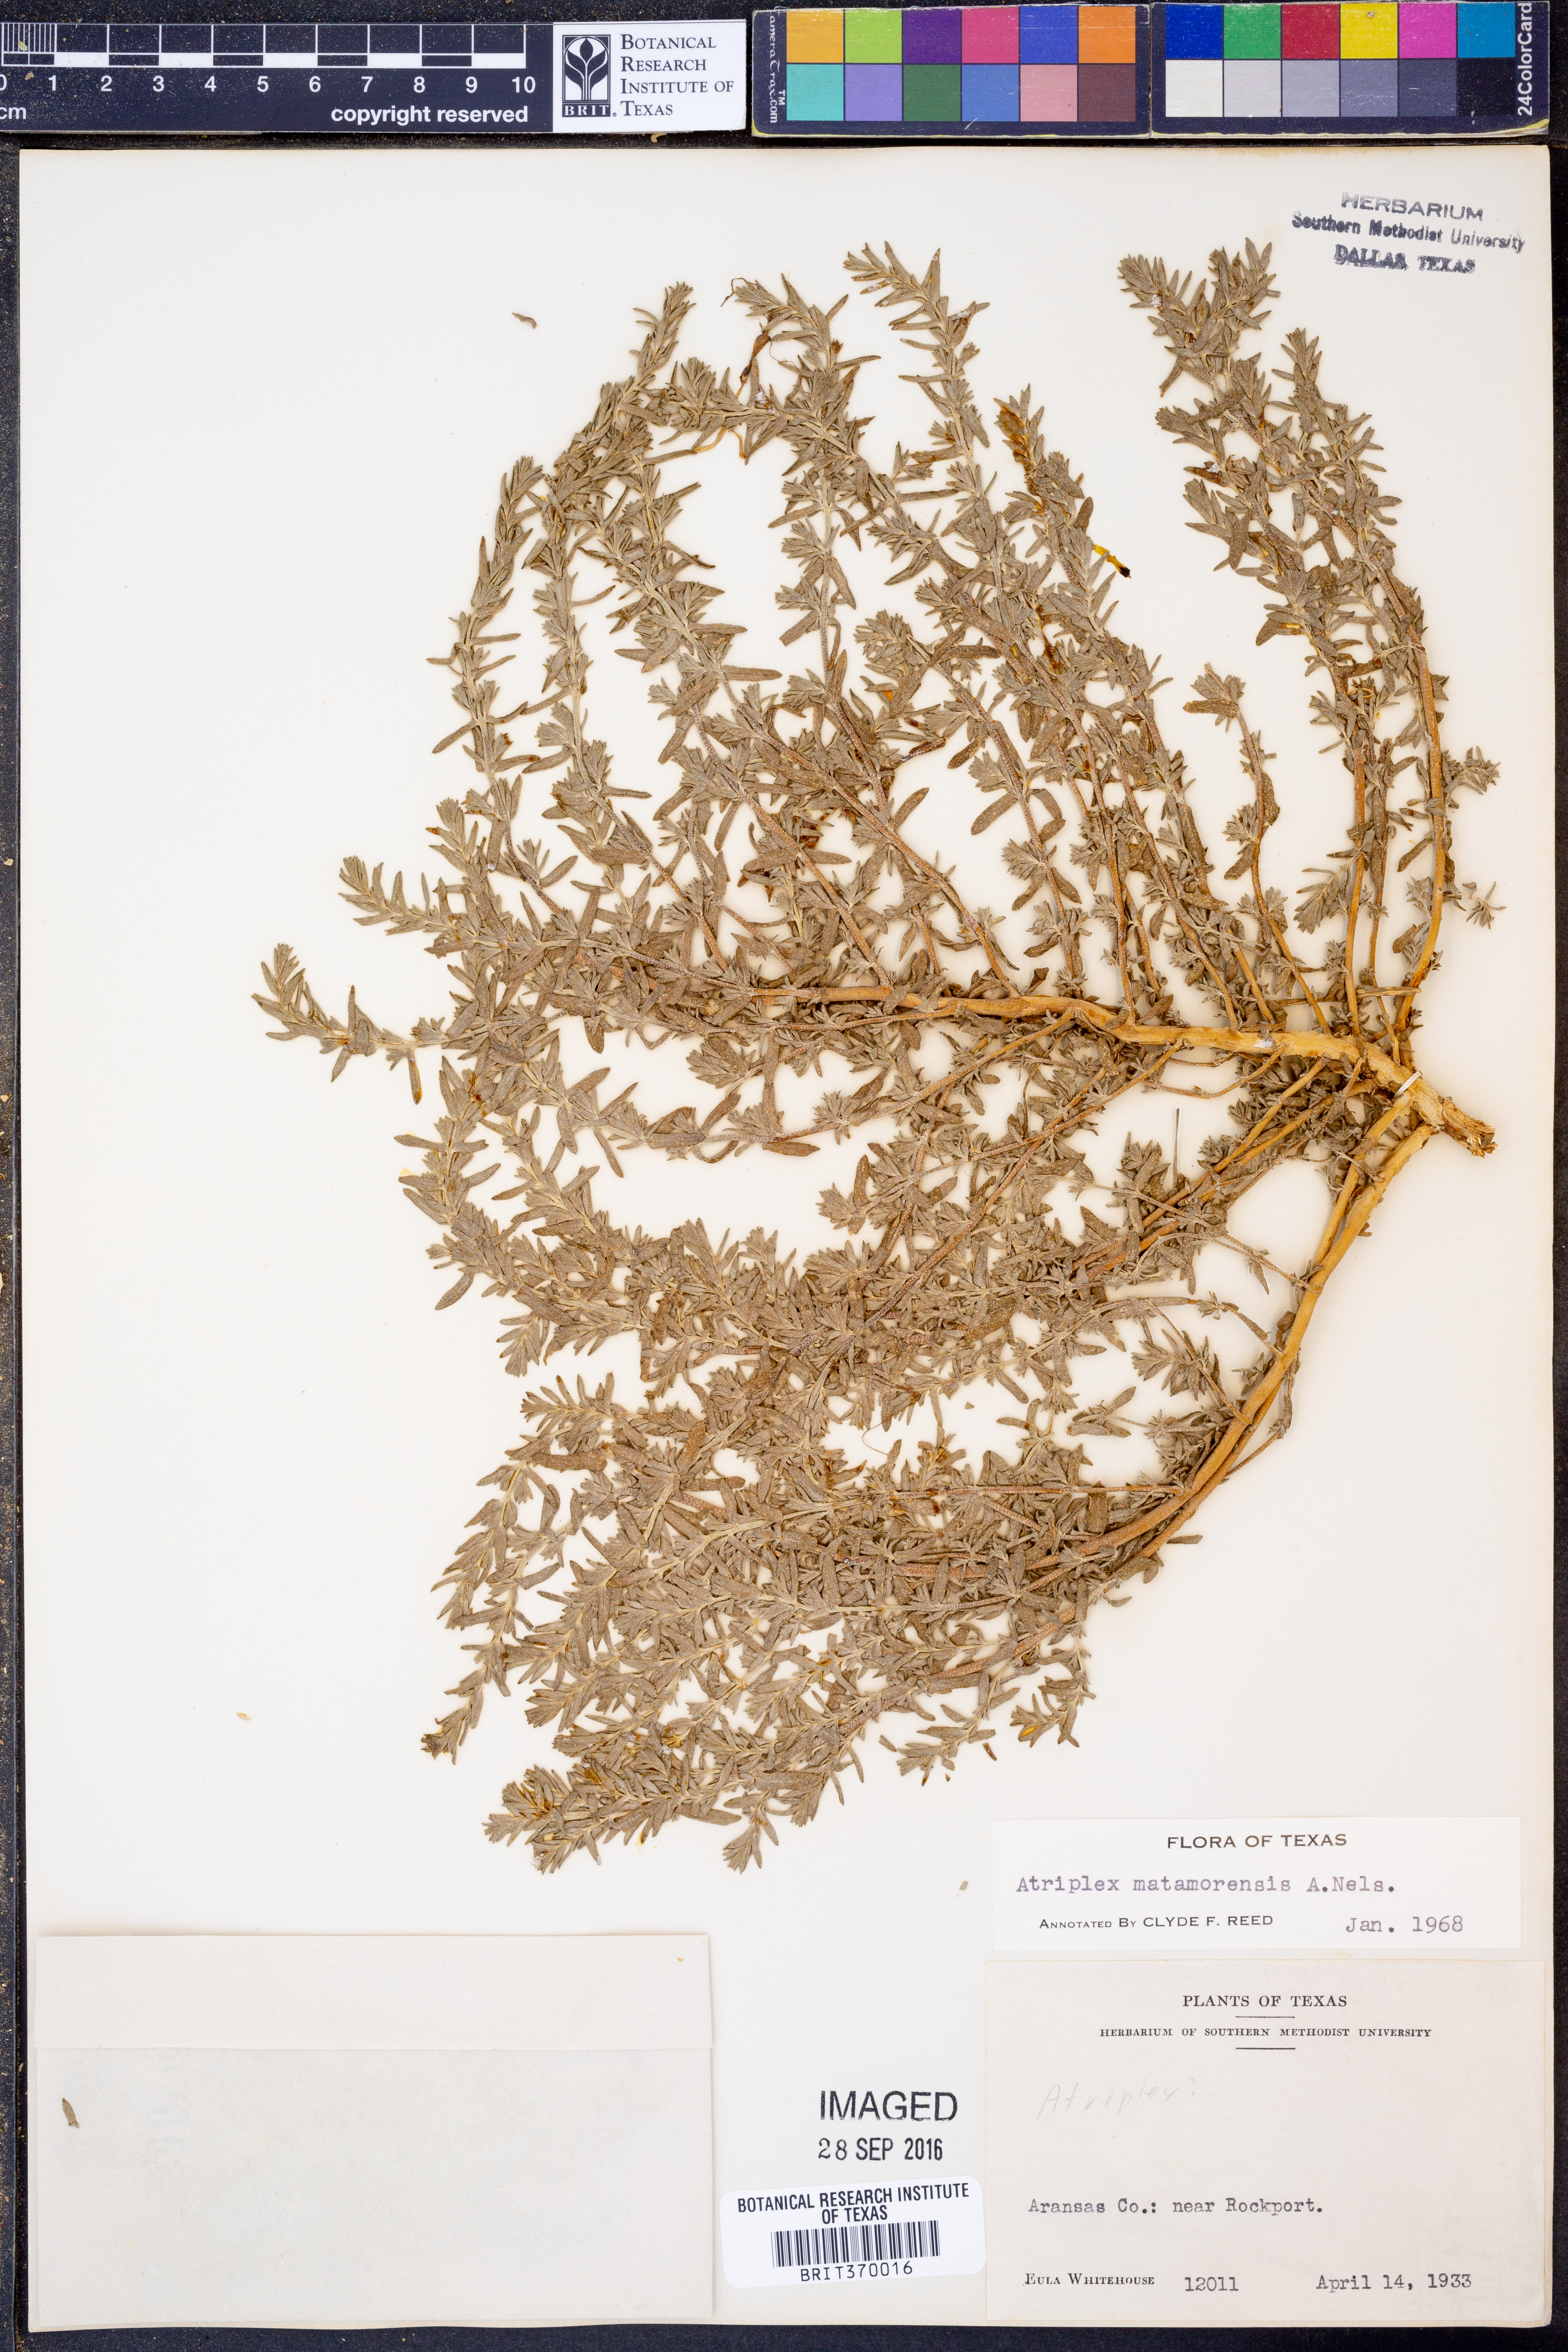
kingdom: Plantae
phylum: Tracheophyta
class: Magnoliopsida
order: Caryophyllales
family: Amaranthaceae
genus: Atriplex
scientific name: Atriplex matamorensis
